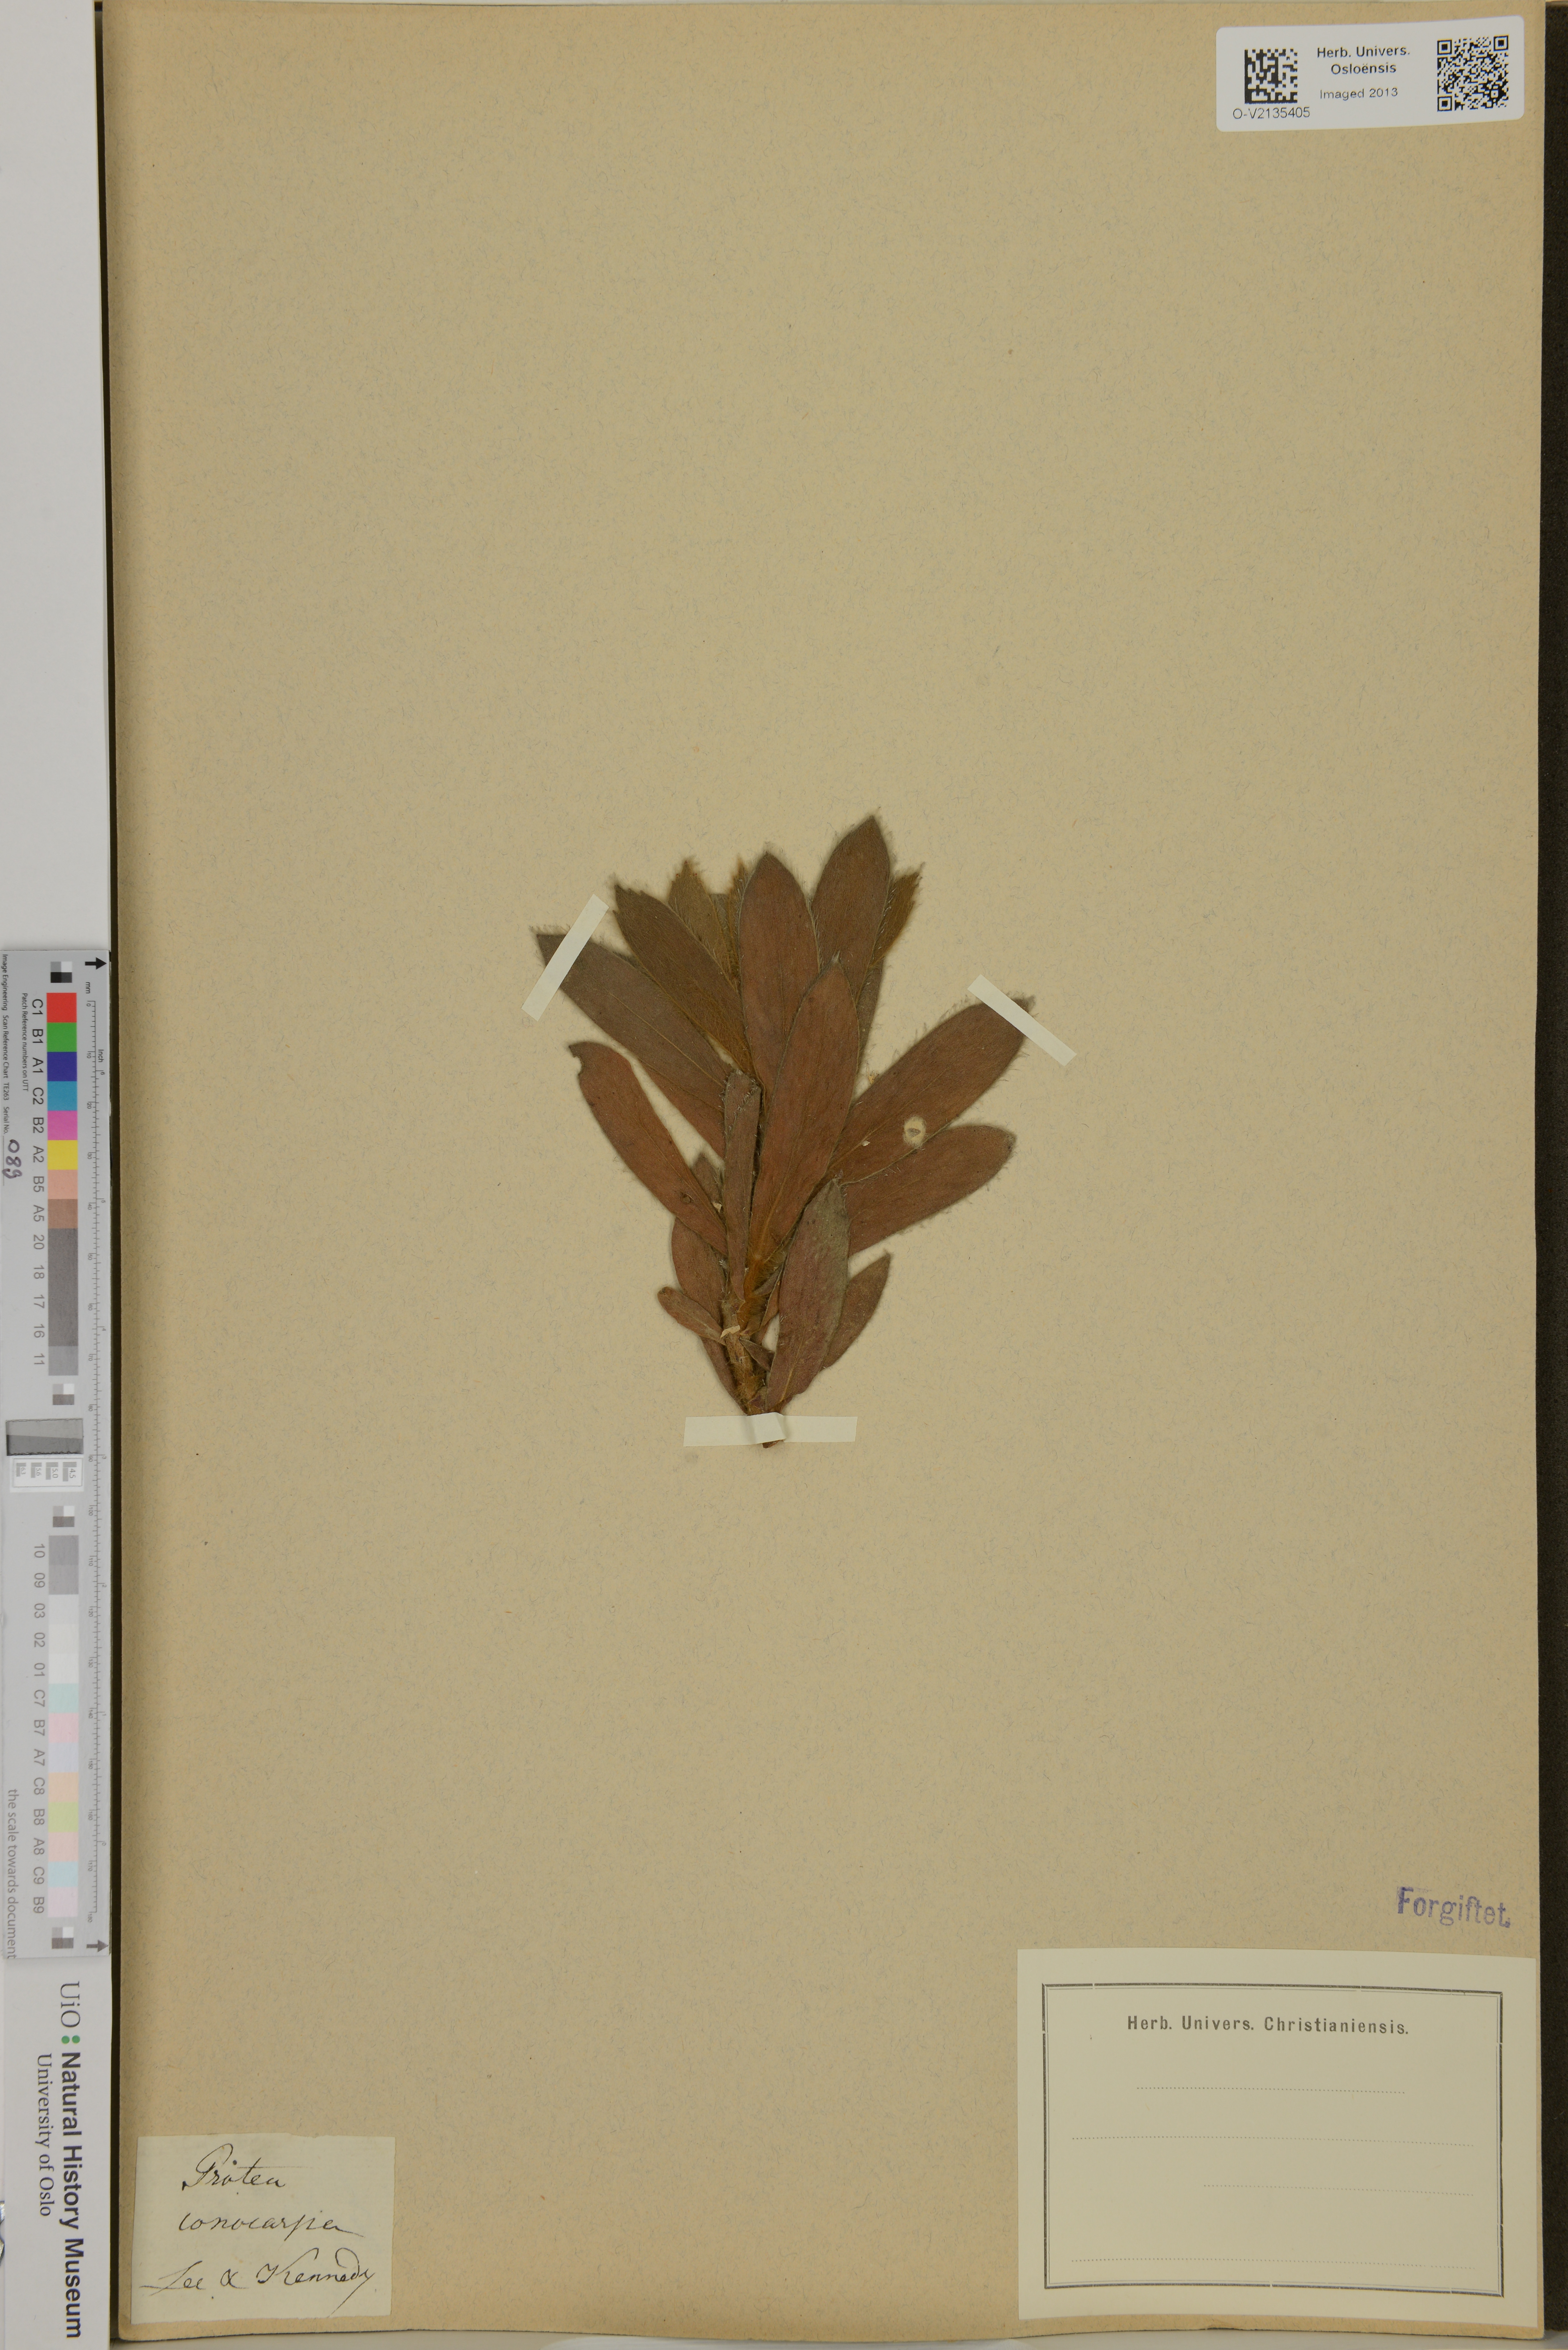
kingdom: Plantae
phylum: Tracheophyta
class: Magnoliopsida
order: Proteales
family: Proteaceae
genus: Leucospermum
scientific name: Leucospermum
